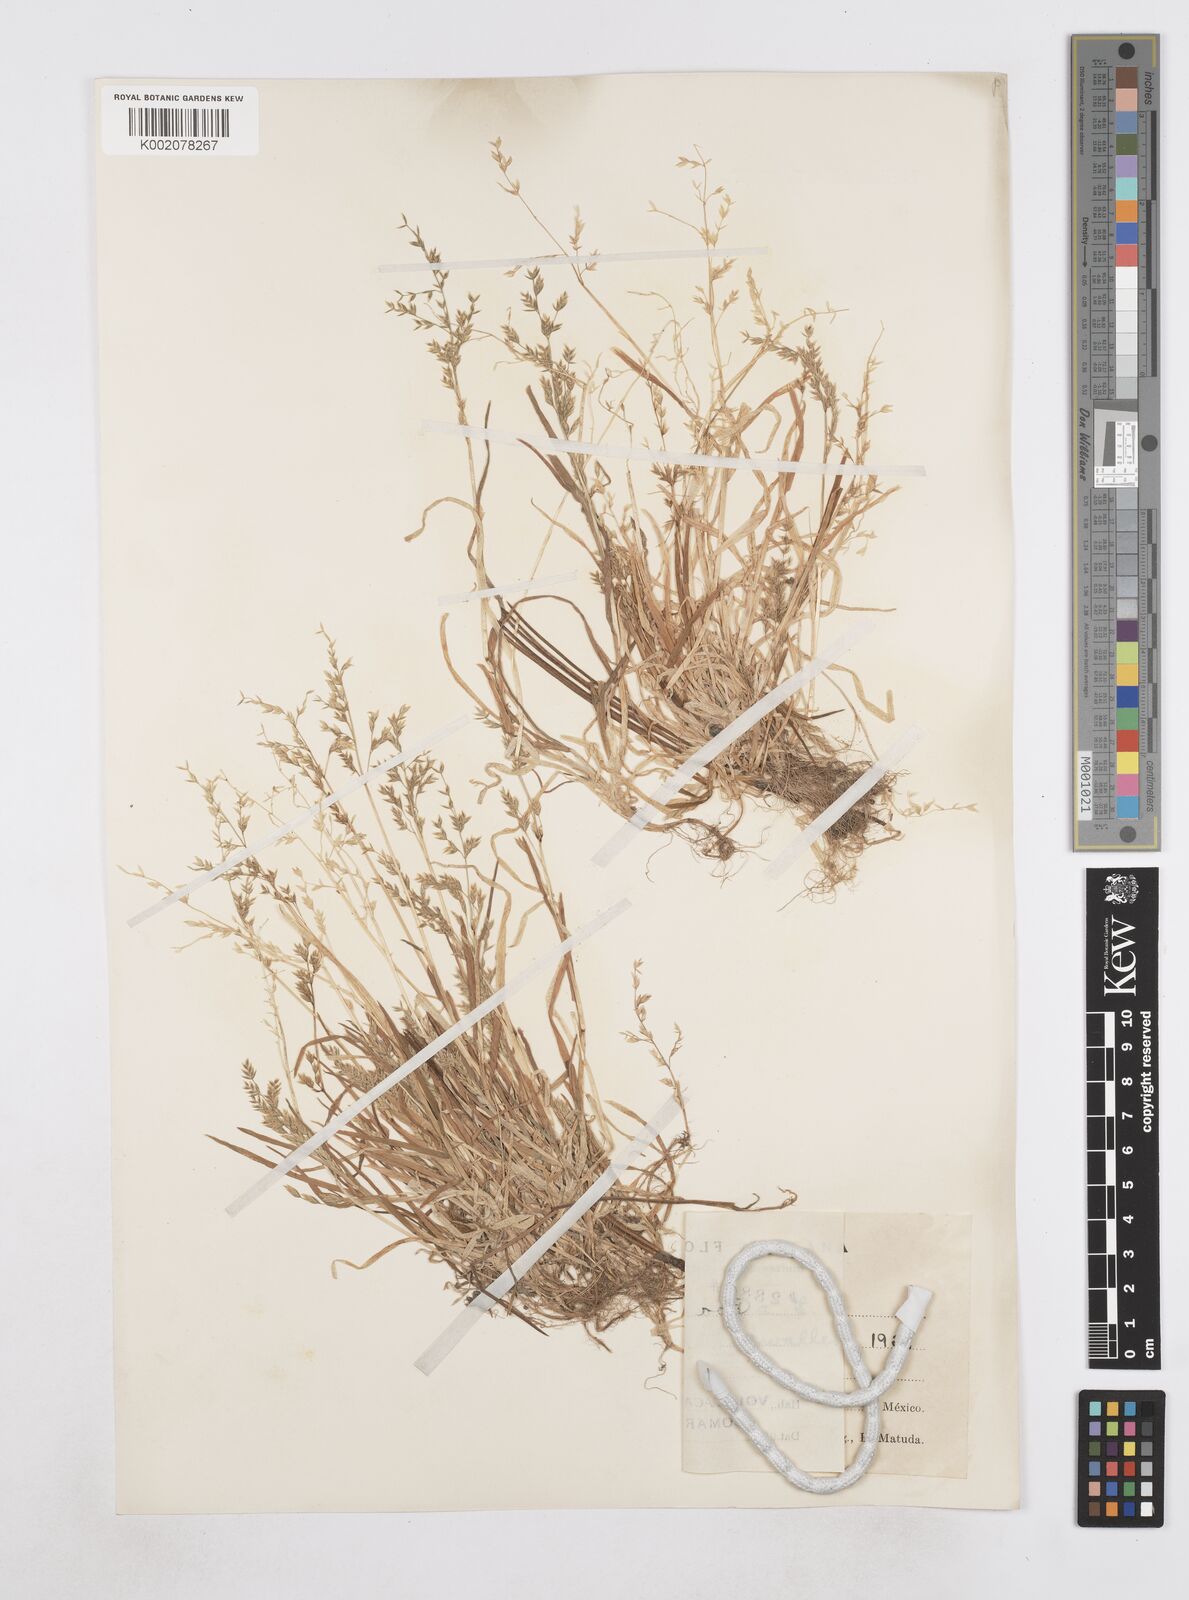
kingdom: Plantae
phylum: Tracheophyta
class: Liliopsida
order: Poales
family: Poaceae
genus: Poa
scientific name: Poa annua
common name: Annual bluegrass
